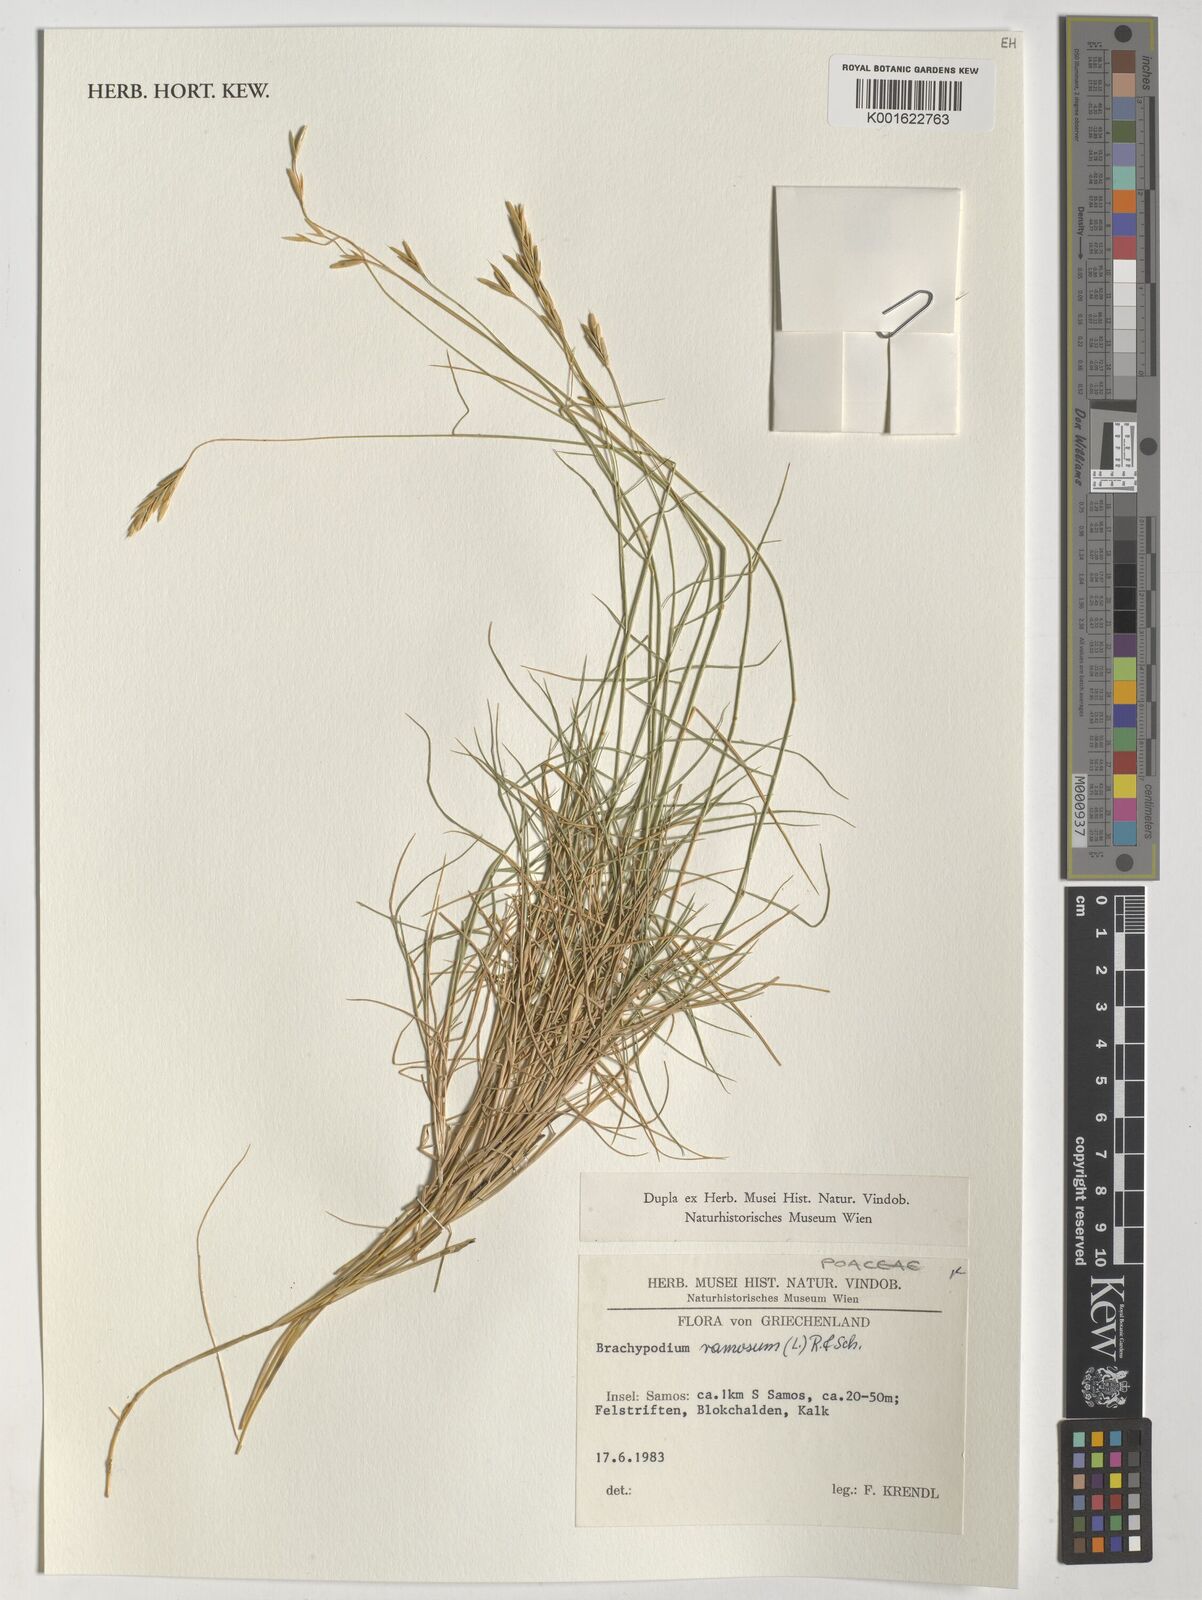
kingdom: Plantae
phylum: Tracheophyta
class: Liliopsida
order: Poales
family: Poaceae
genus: Brachypodium
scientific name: Brachypodium retusum
